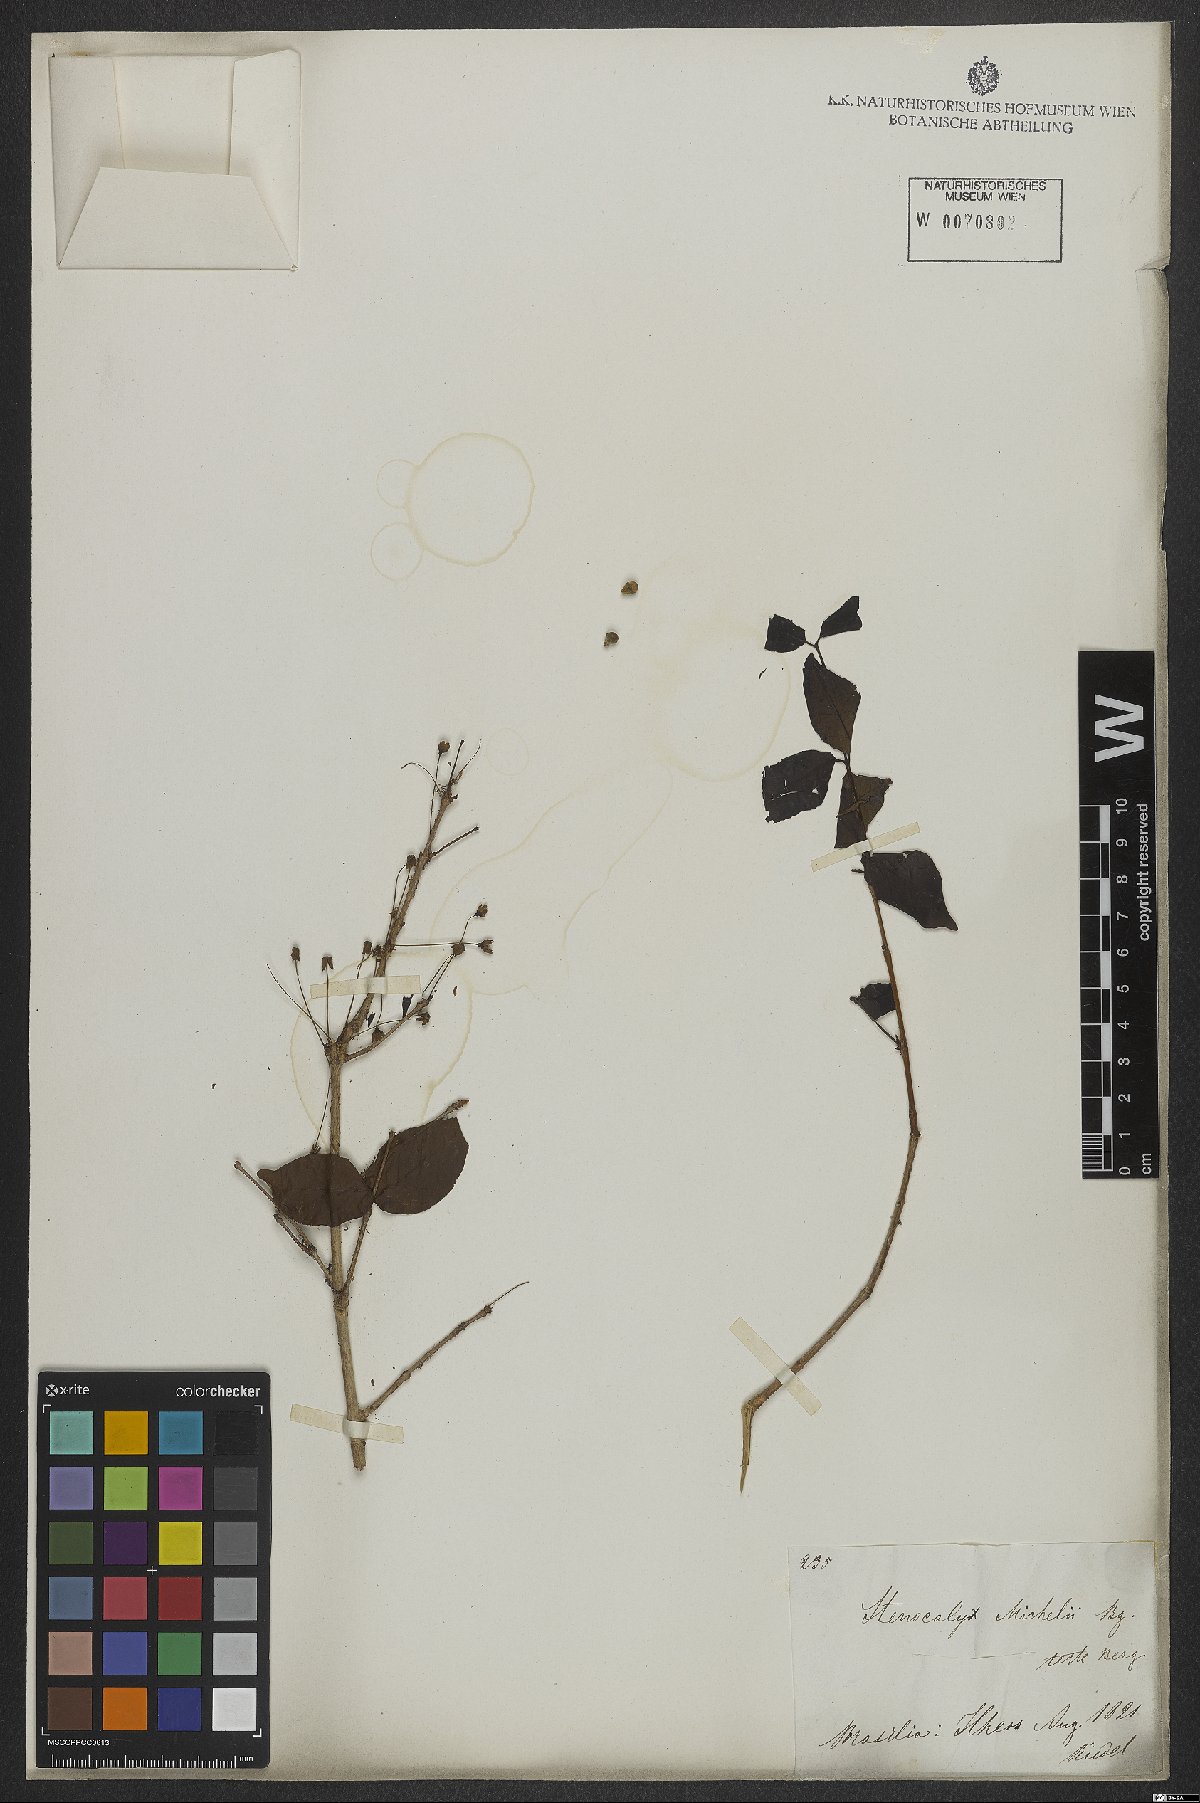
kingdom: Plantae
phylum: Tracheophyta
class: Magnoliopsida
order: Myrtales
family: Myrtaceae
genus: Eugenia
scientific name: Eugenia uniflora
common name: Surinam cherry
